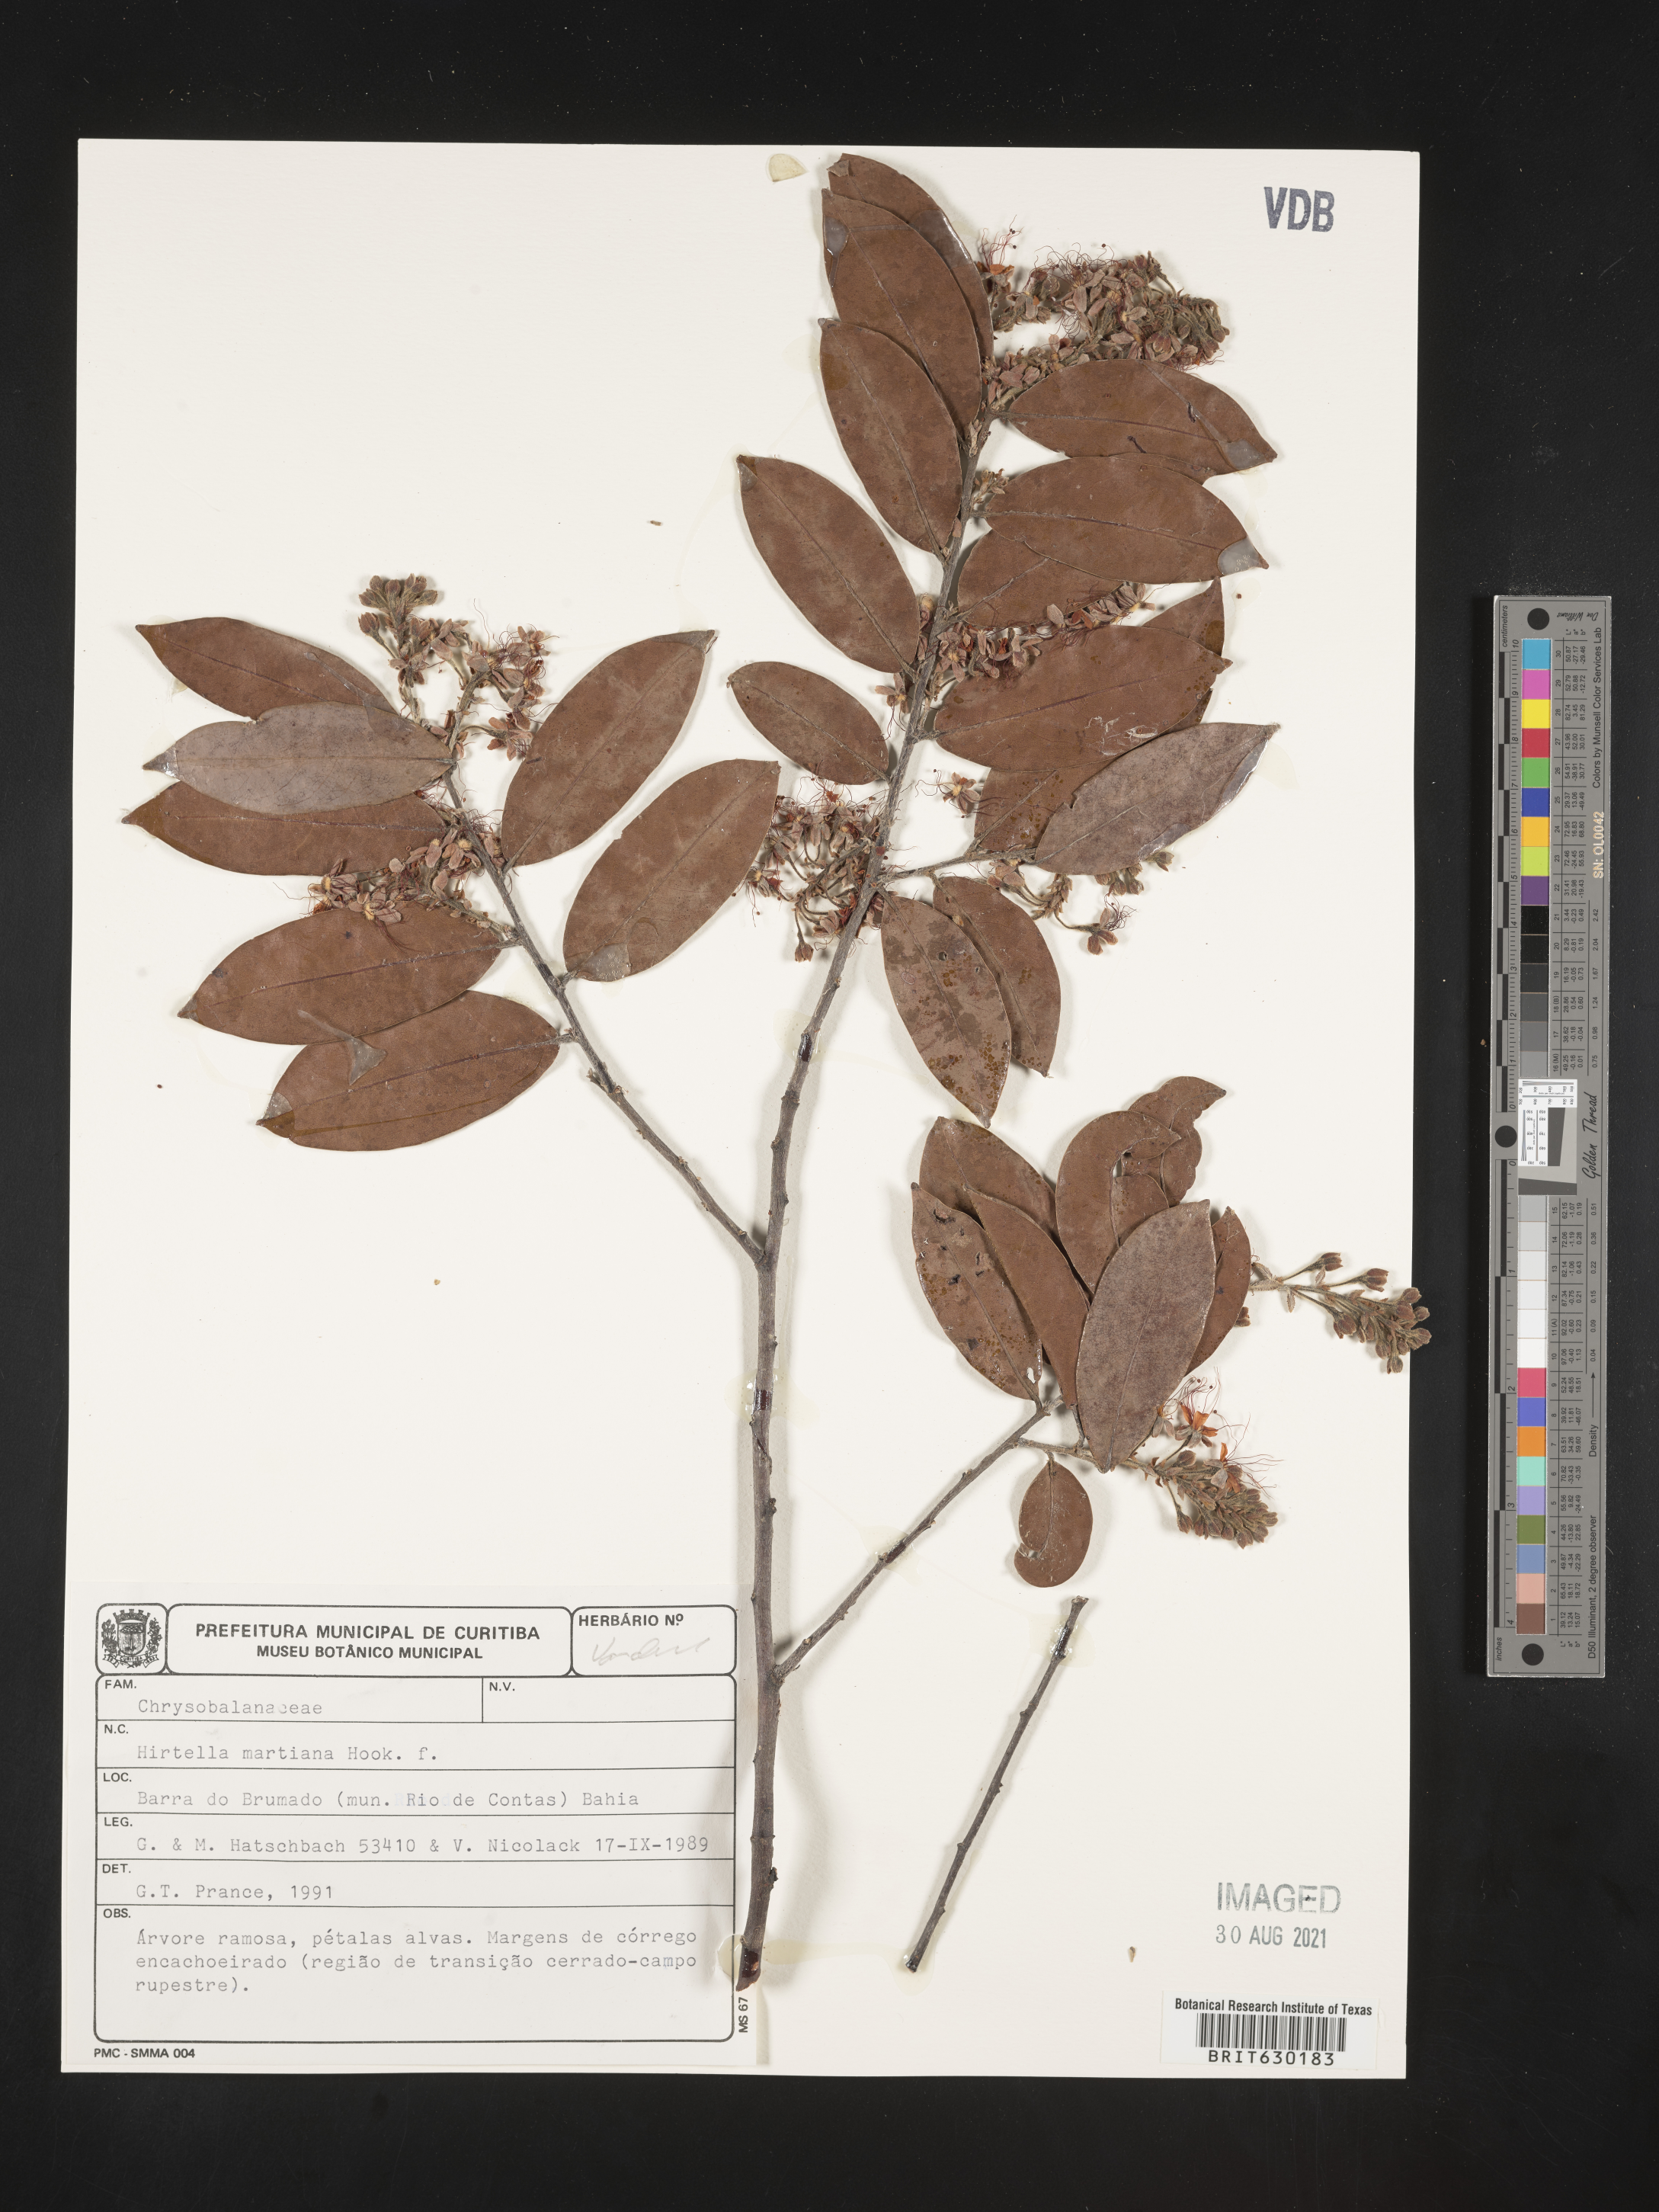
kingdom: Plantae
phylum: Tracheophyta
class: Magnoliopsida
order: Malpighiales
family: Chrysobalanaceae
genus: Hirtella
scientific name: Hirtella martiana
